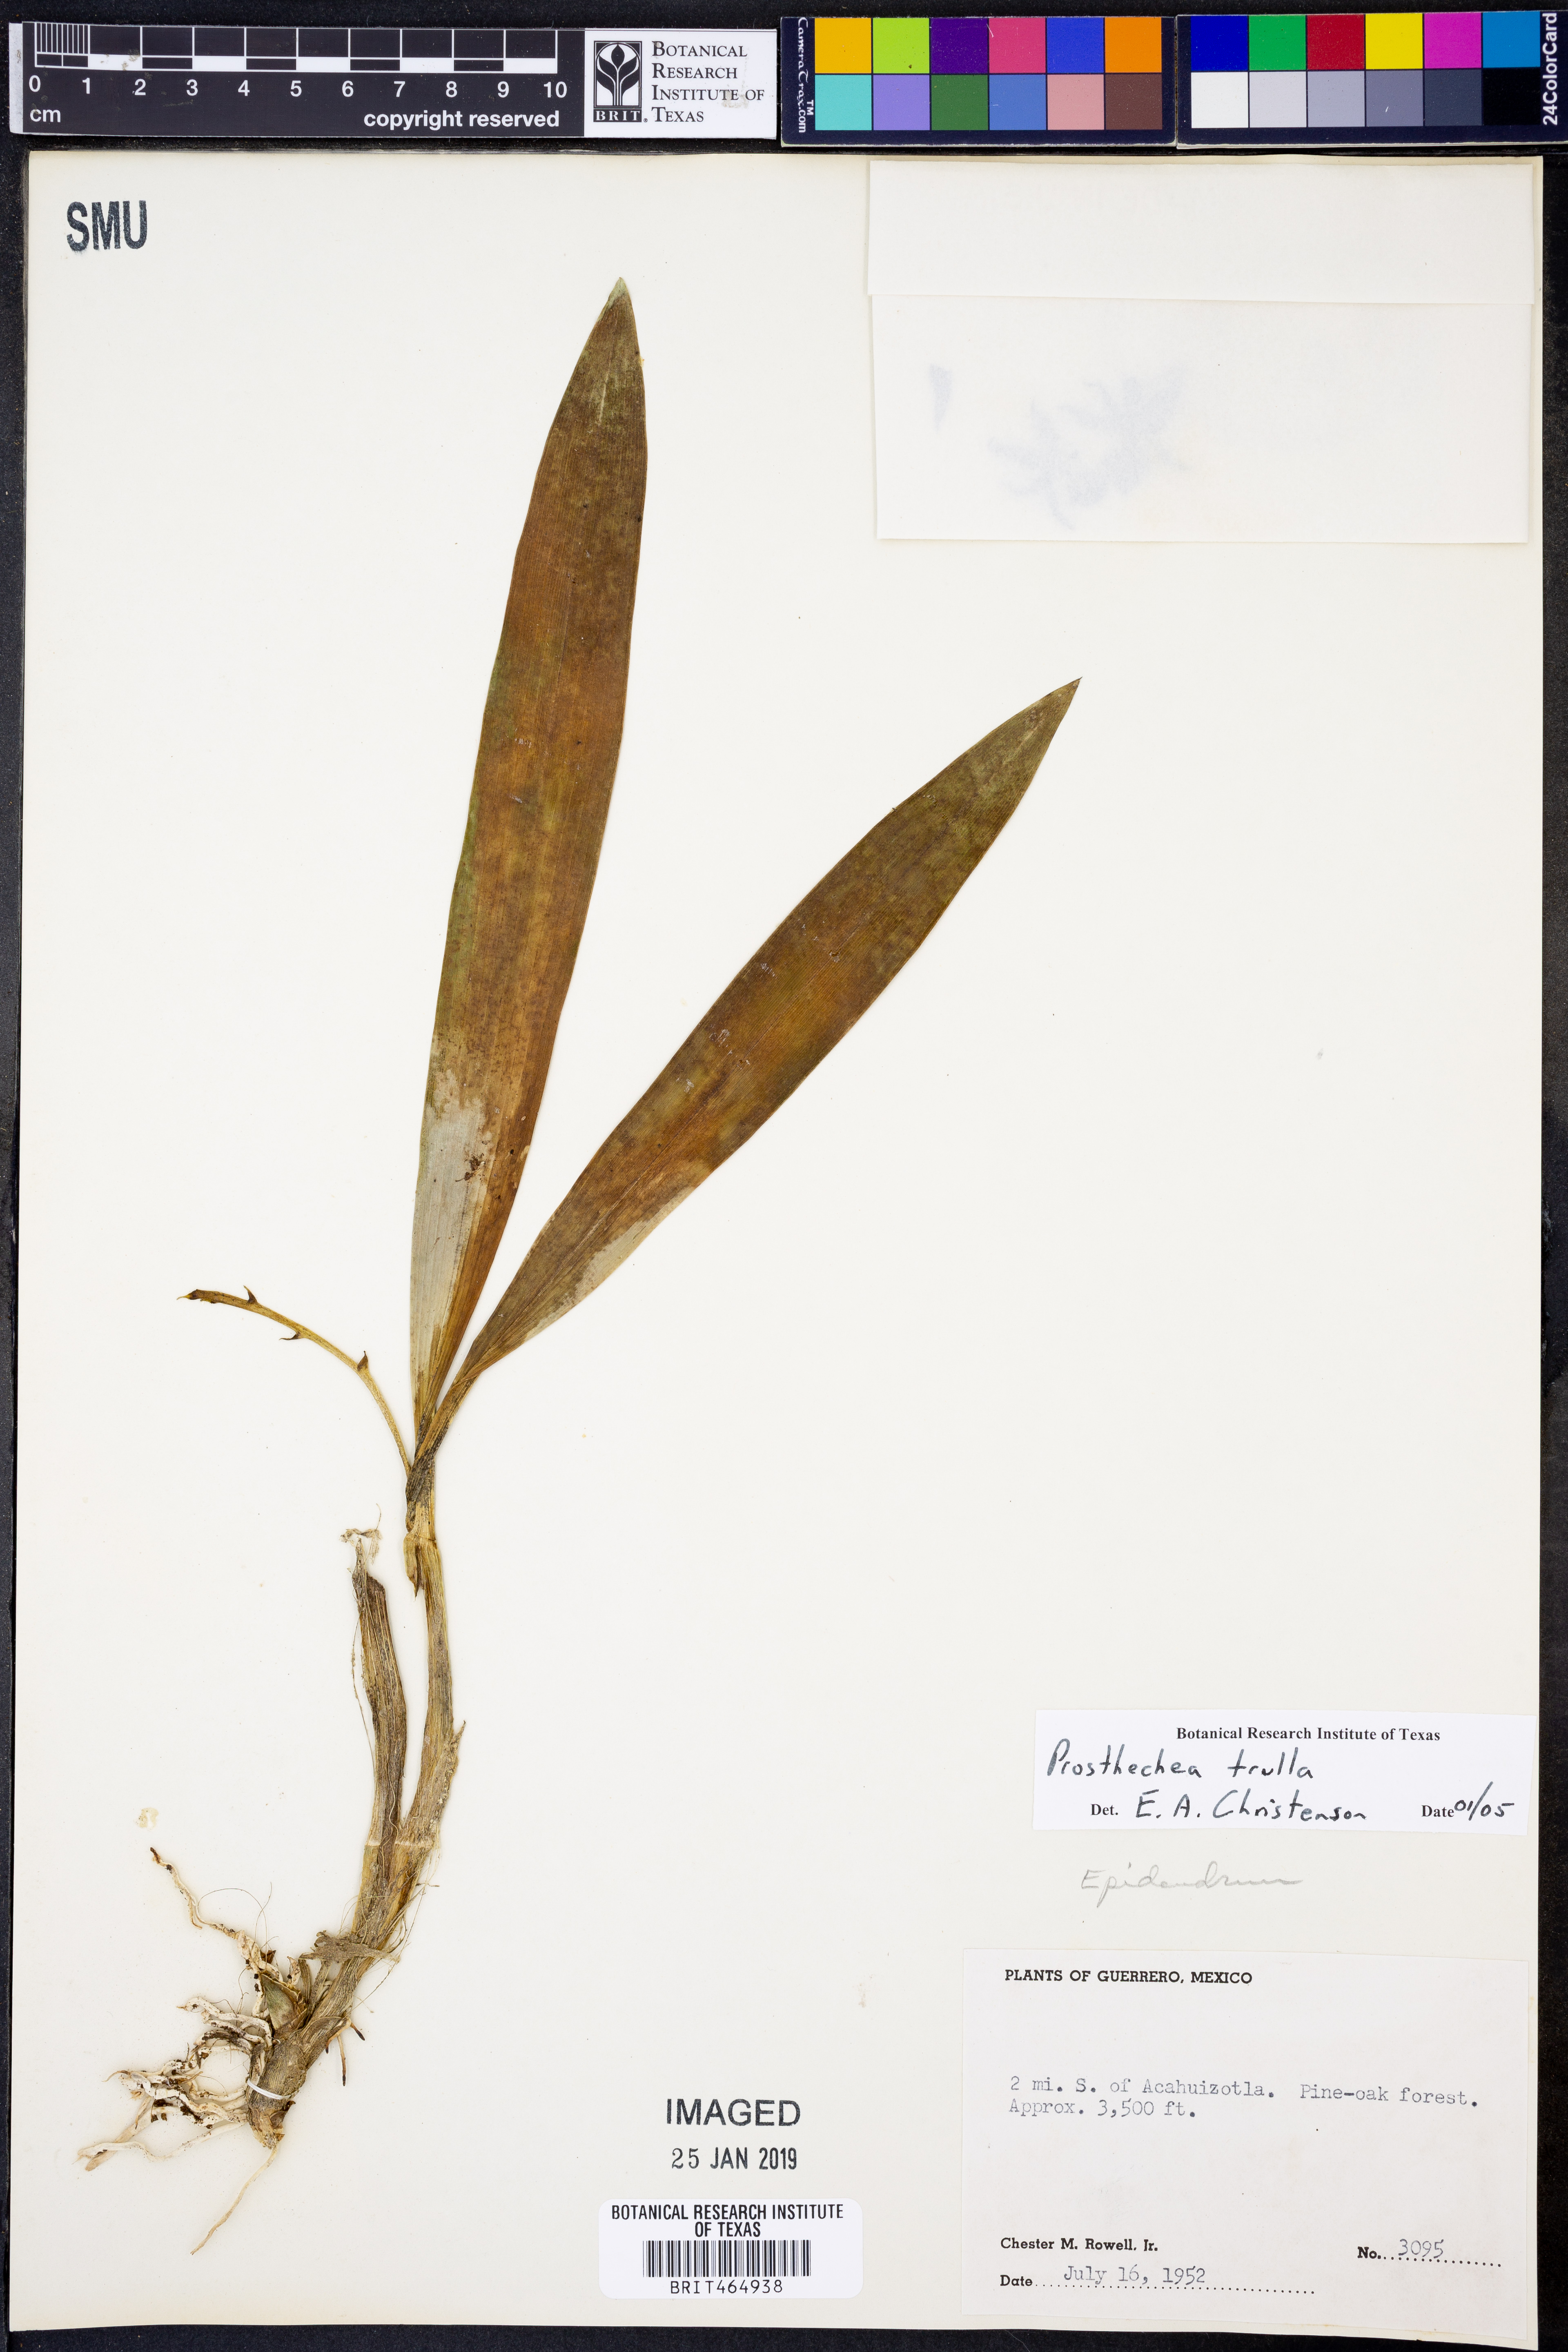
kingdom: Plantae
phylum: Tracheophyta
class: Liliopsida
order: Asparagales
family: Orchidaceae
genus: Prosthechea
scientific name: Prosthechea trulla
